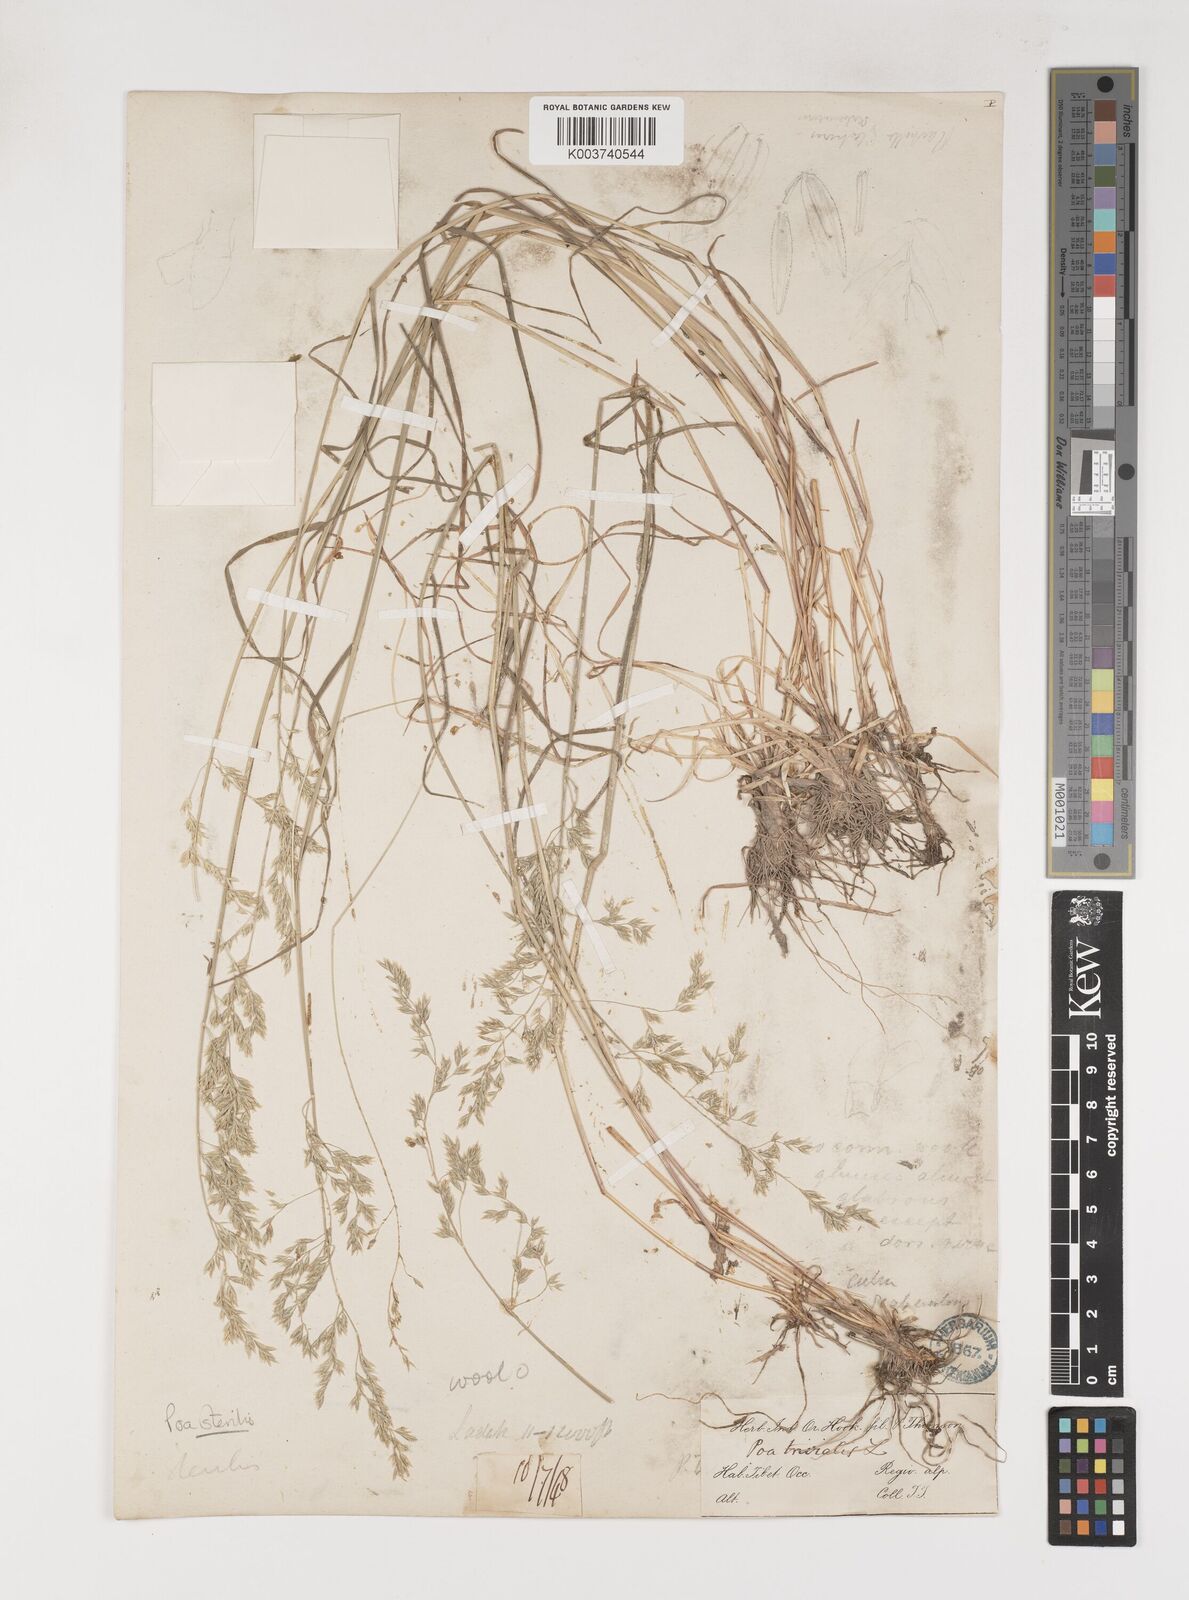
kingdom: Plantae
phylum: Tracheophyta
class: Liliopsida
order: Poales
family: Poaceae
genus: Poa
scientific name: Poa sterilis
